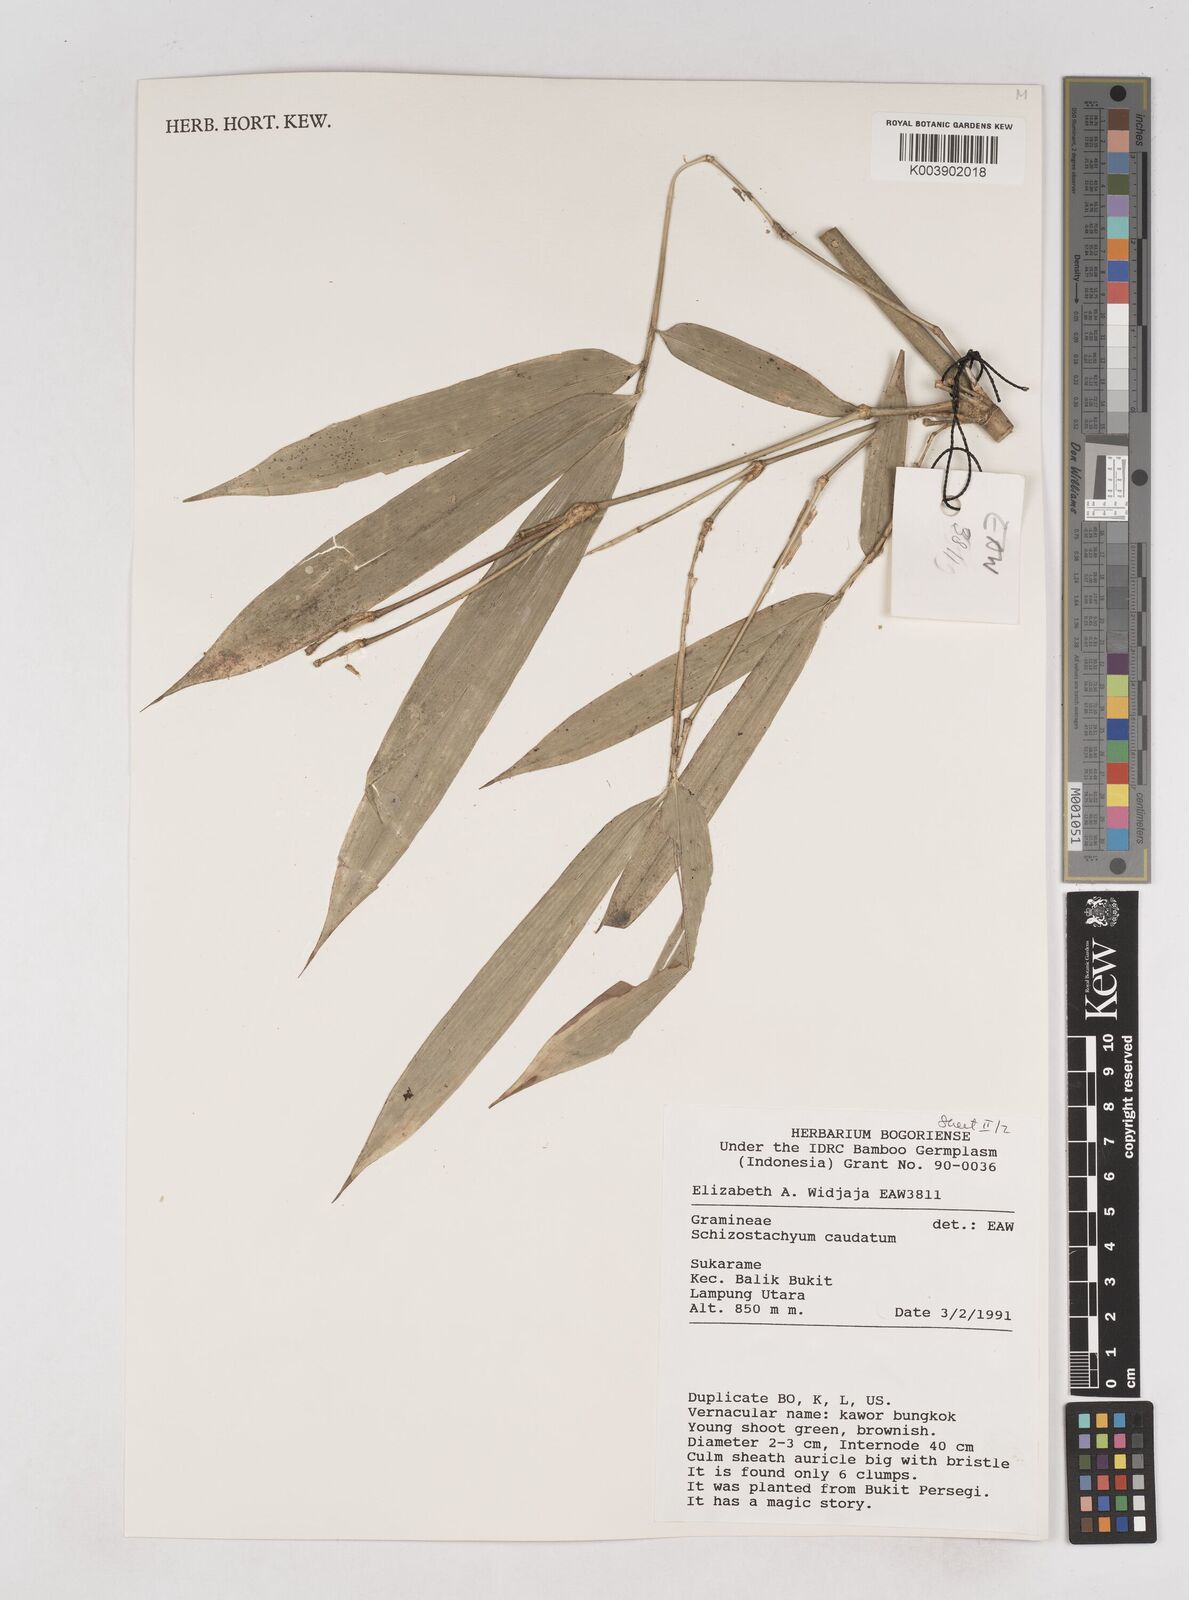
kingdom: Plantae
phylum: Tracheophyta
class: Liliopsida
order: Poales
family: Poaceae
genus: Schizostachyum
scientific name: Schizostachyum caudatum
